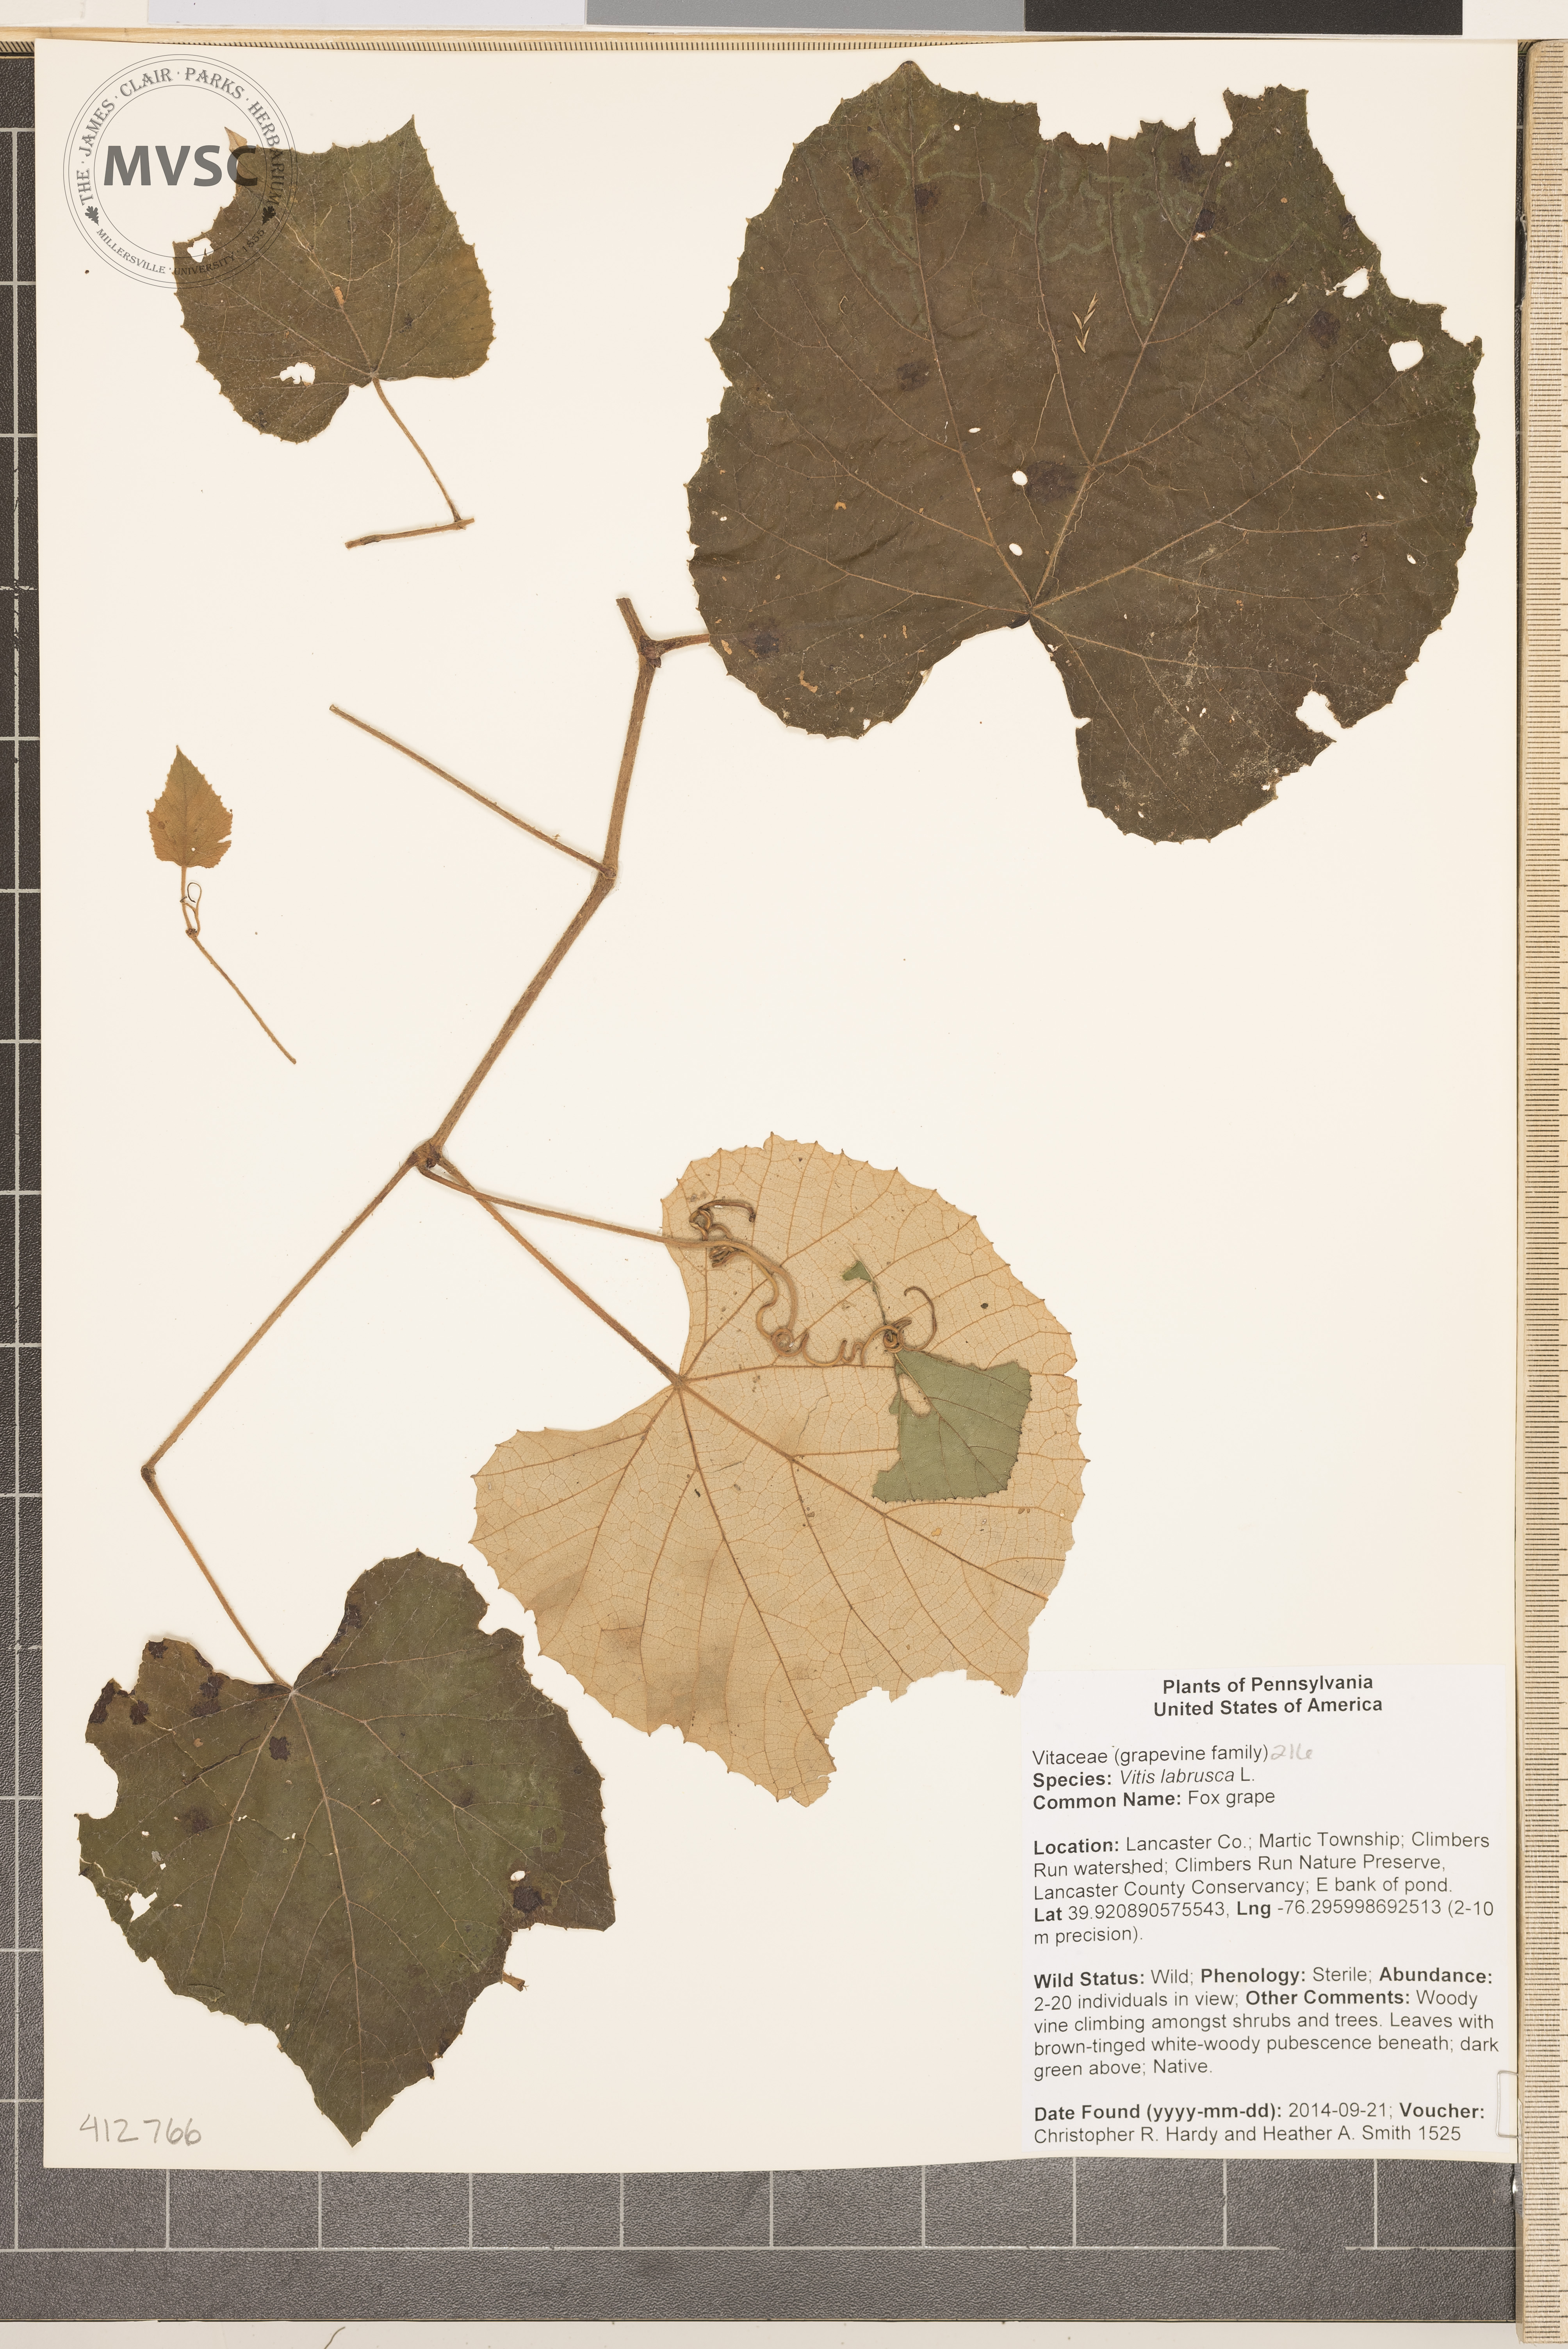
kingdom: Plantae
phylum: Tracheophyta
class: Magnoliopsida
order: Vitales
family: Vitaceae
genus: Vitis
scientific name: Vitis labrusca
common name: fox grape
